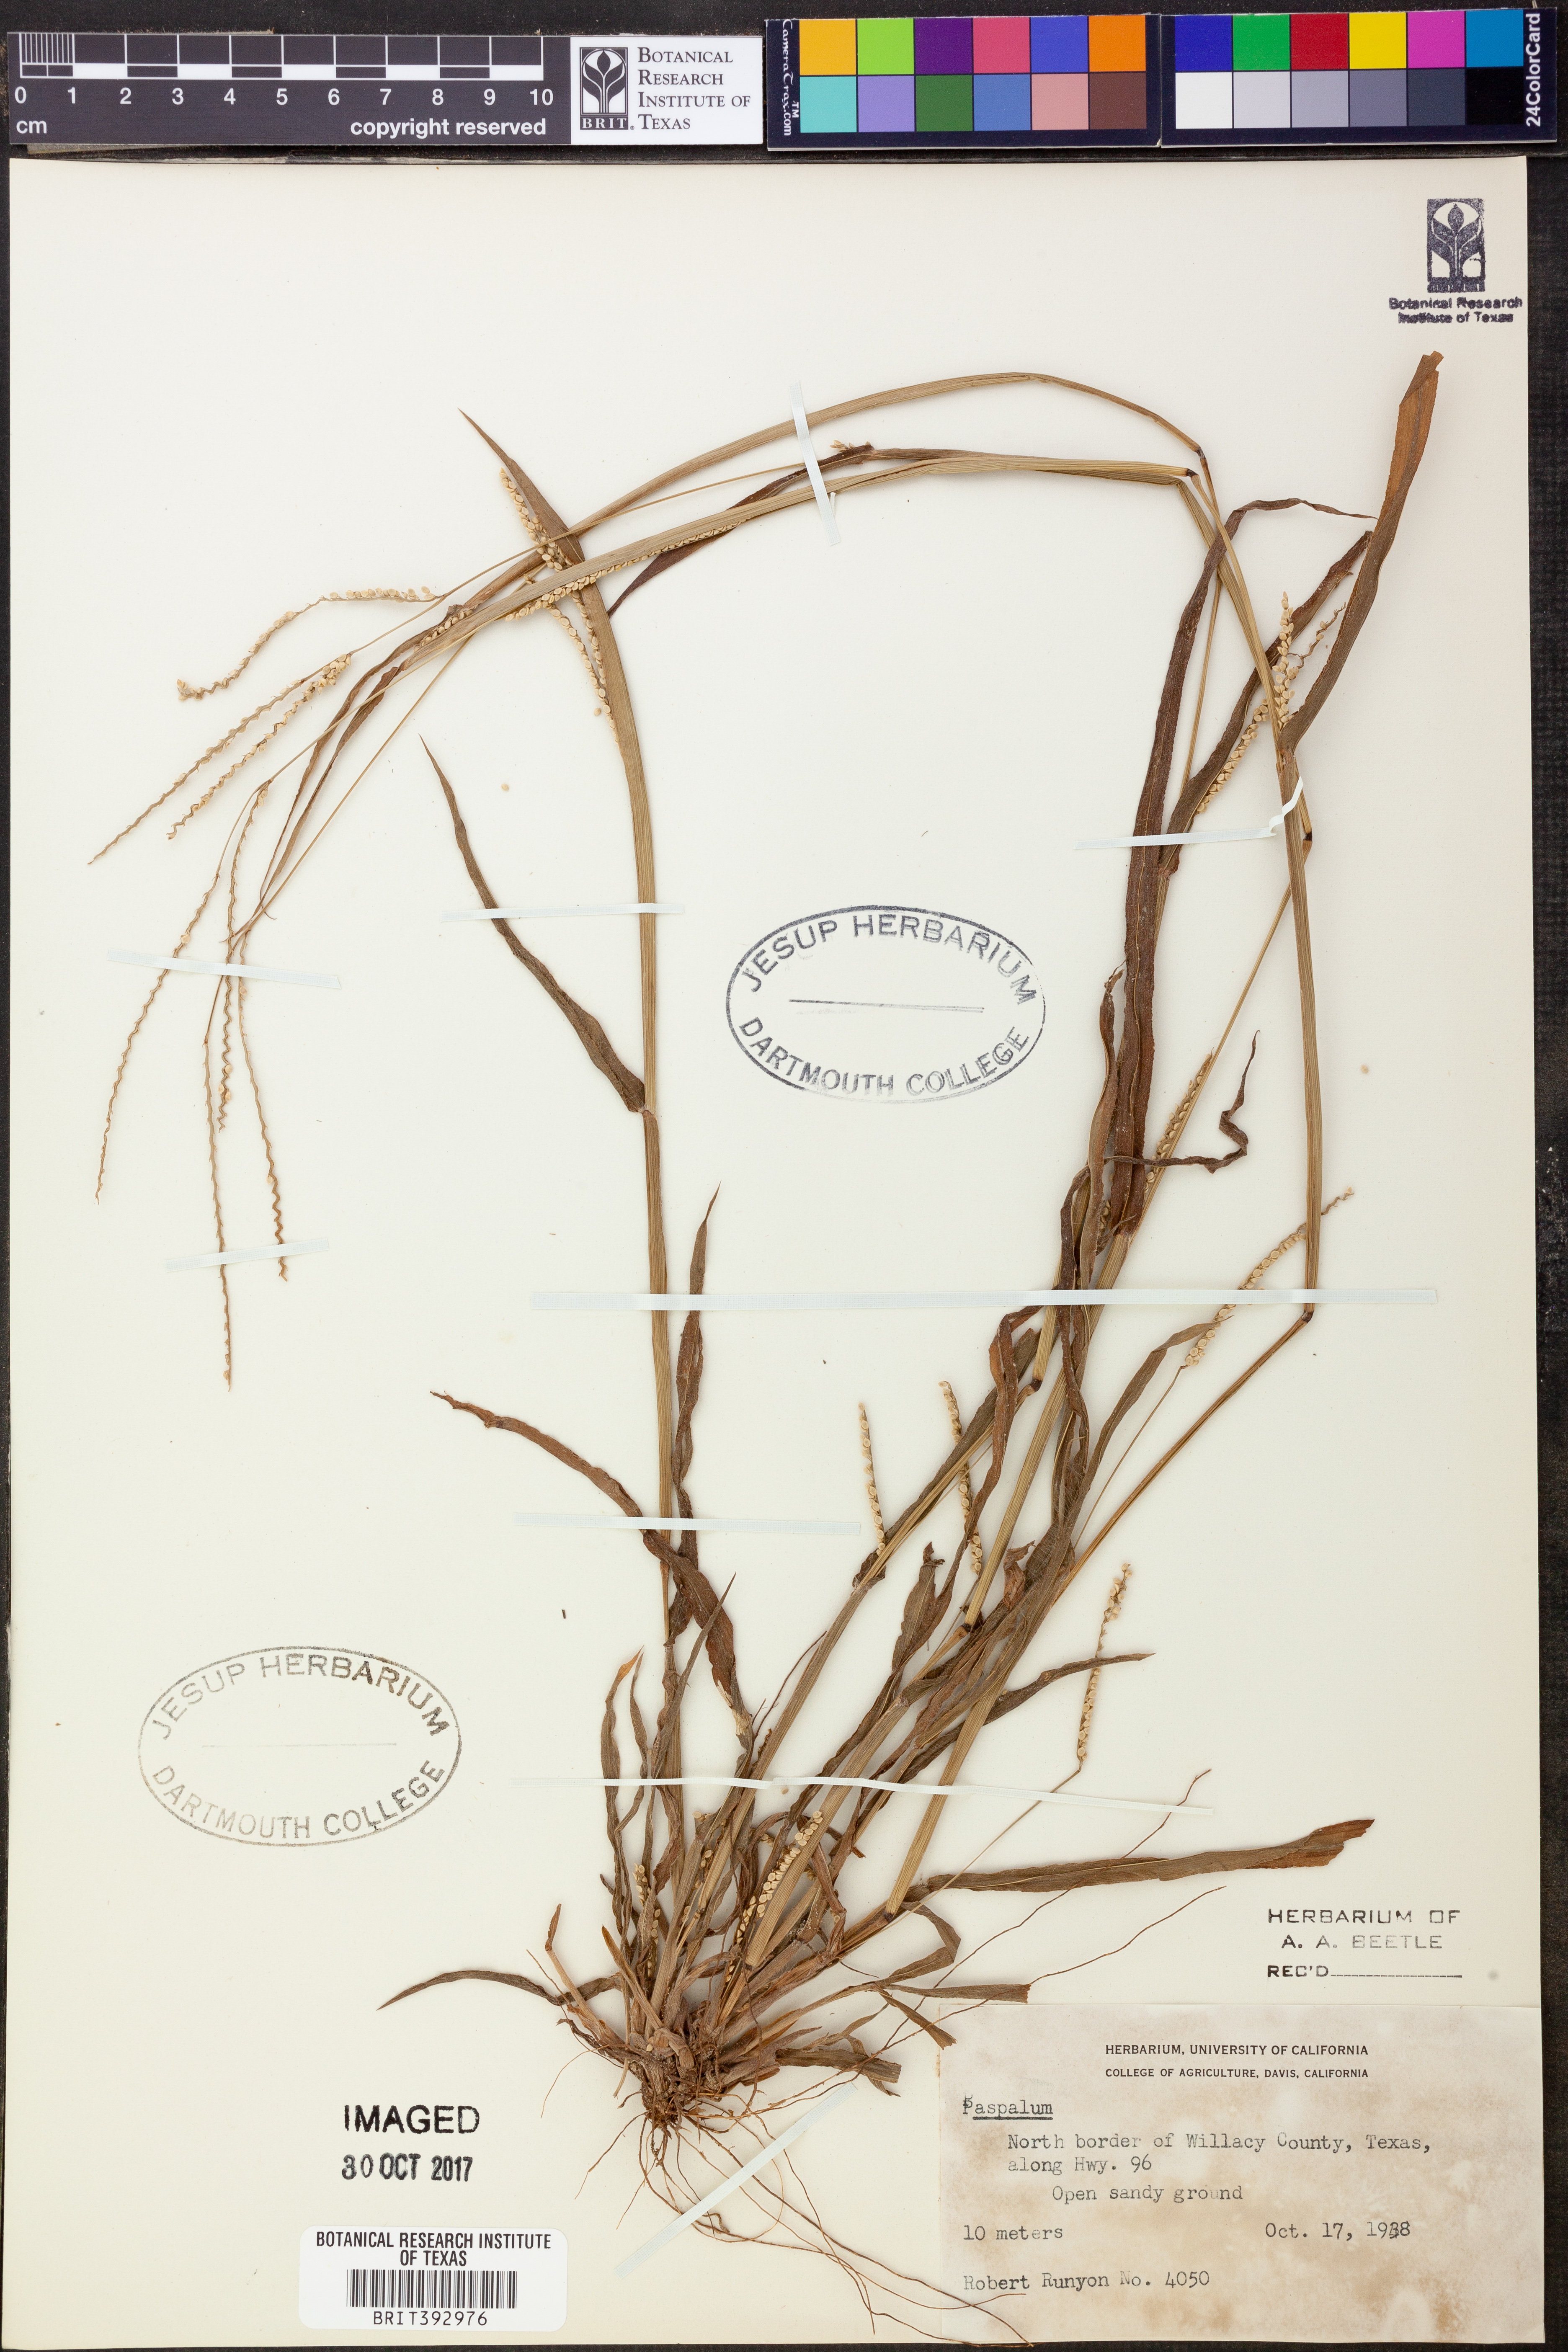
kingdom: Plantae
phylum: Tracheophyta
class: Liliopsida
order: Poales
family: Poaceae
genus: Paspalum
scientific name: Paspalum
